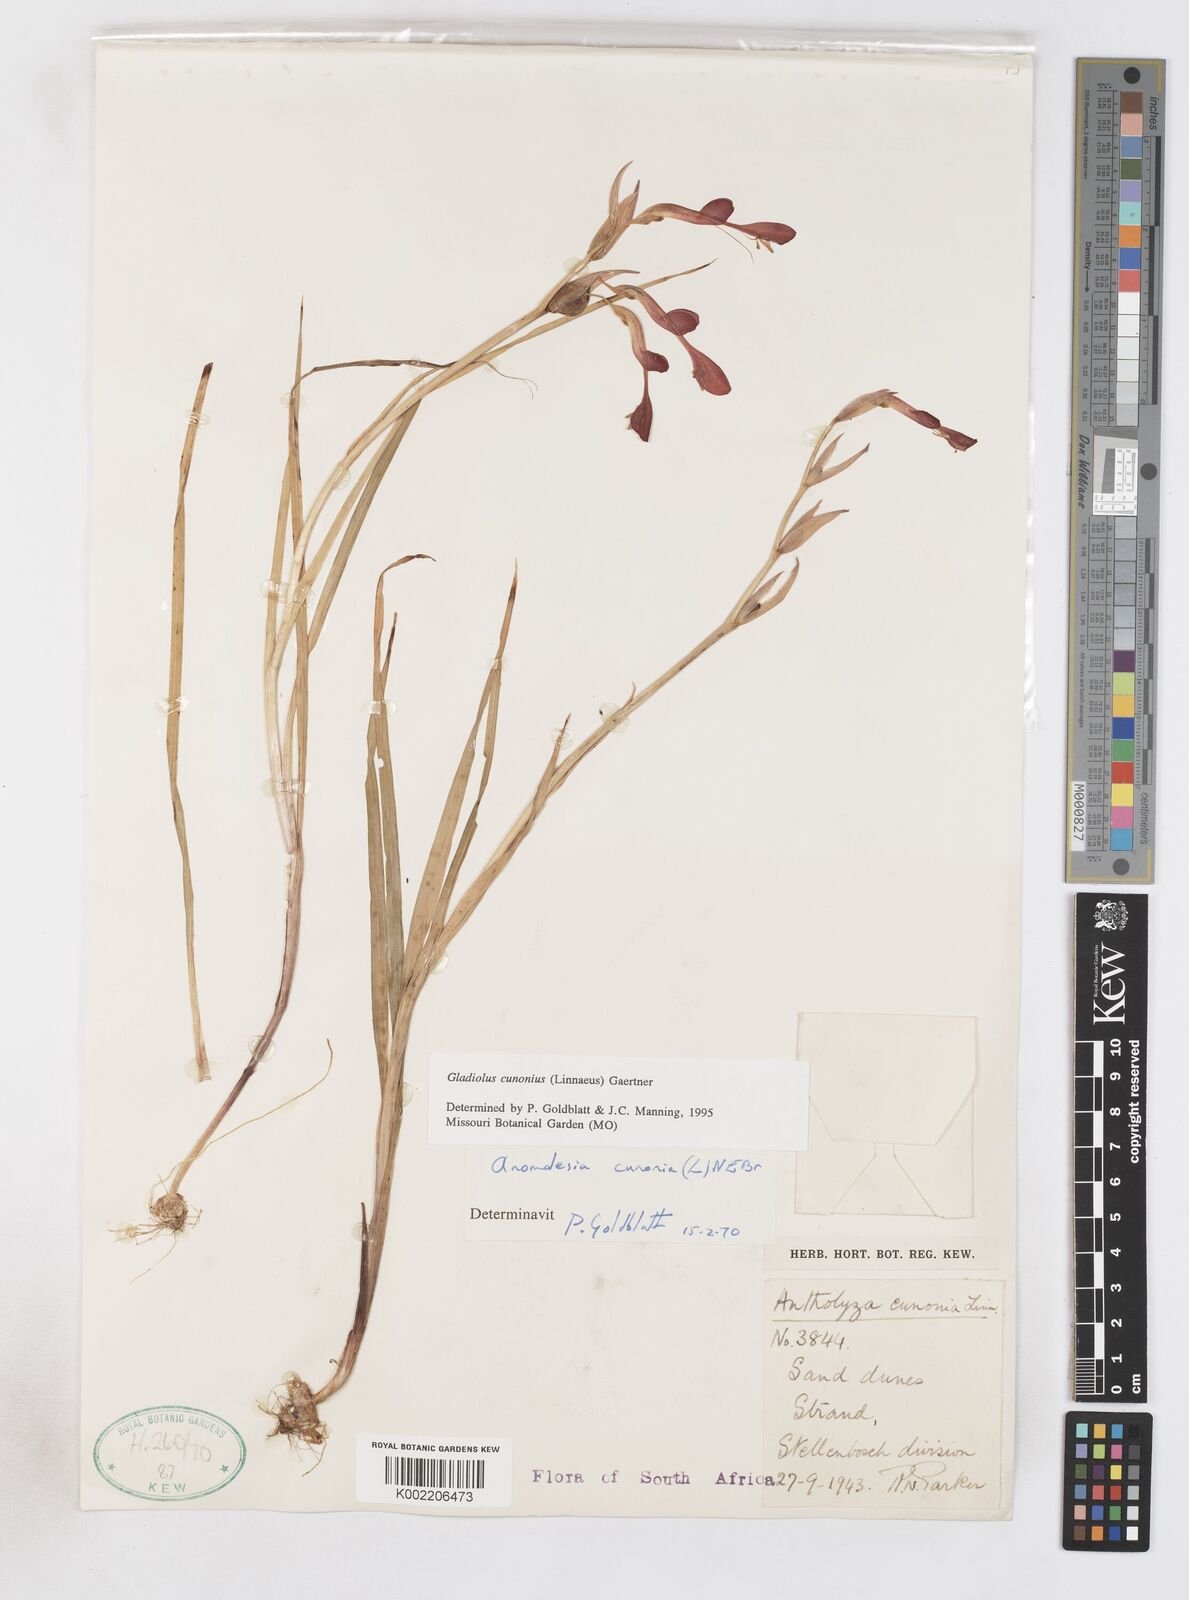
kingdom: Plantae
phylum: Tracheophyta
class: Liliopsida
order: Asparagales
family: Iridaceae
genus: Gladiolus
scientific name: Gladiolus cunonius
